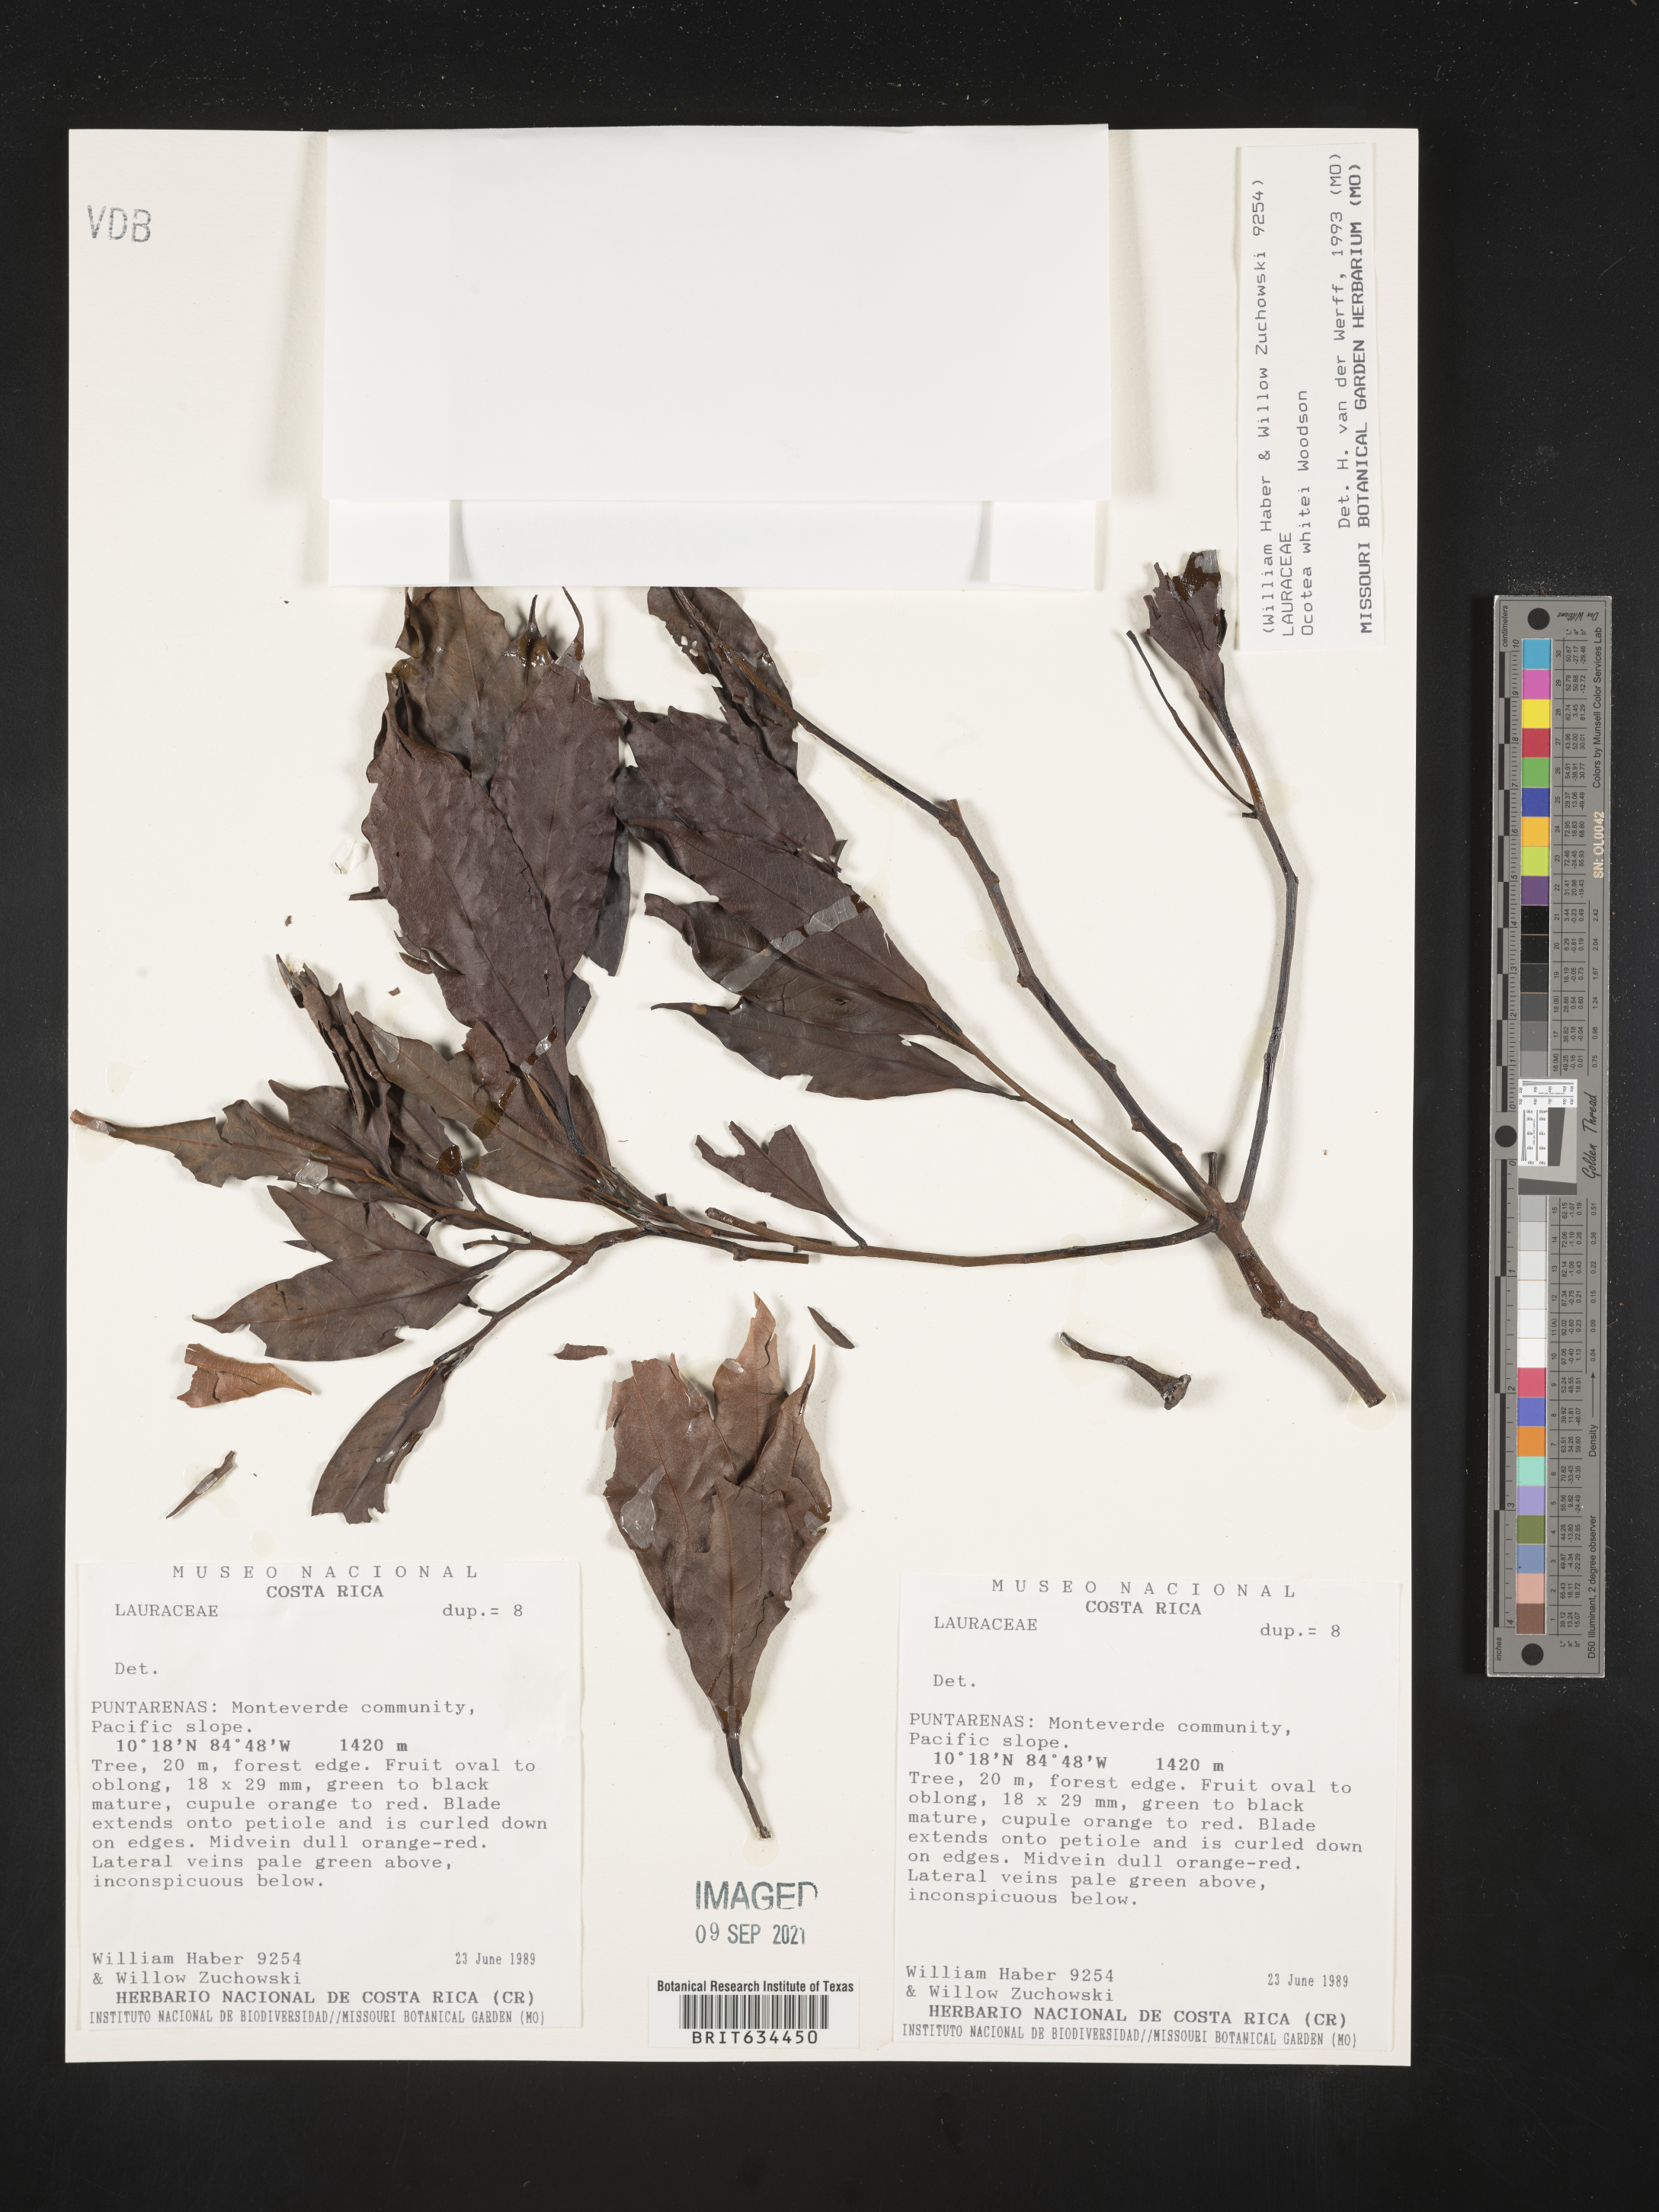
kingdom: Plantae
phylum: Tracheophyta
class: Magnoliopsida
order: Laurales
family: Lauraceae
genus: Ocotea
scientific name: Ocotea
